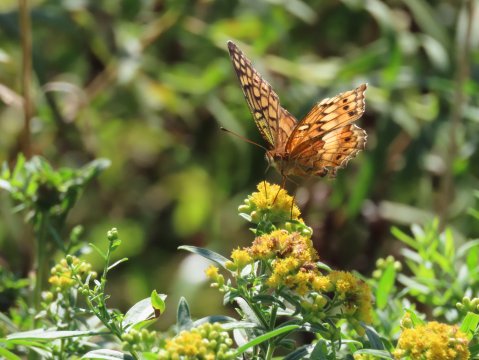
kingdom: Animalia
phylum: Arthropoda
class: Insecta
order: Lepidoptera
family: Nymphalidae
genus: Euptoieta
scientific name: Euptoieta claudia
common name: Variegated Fritillary
